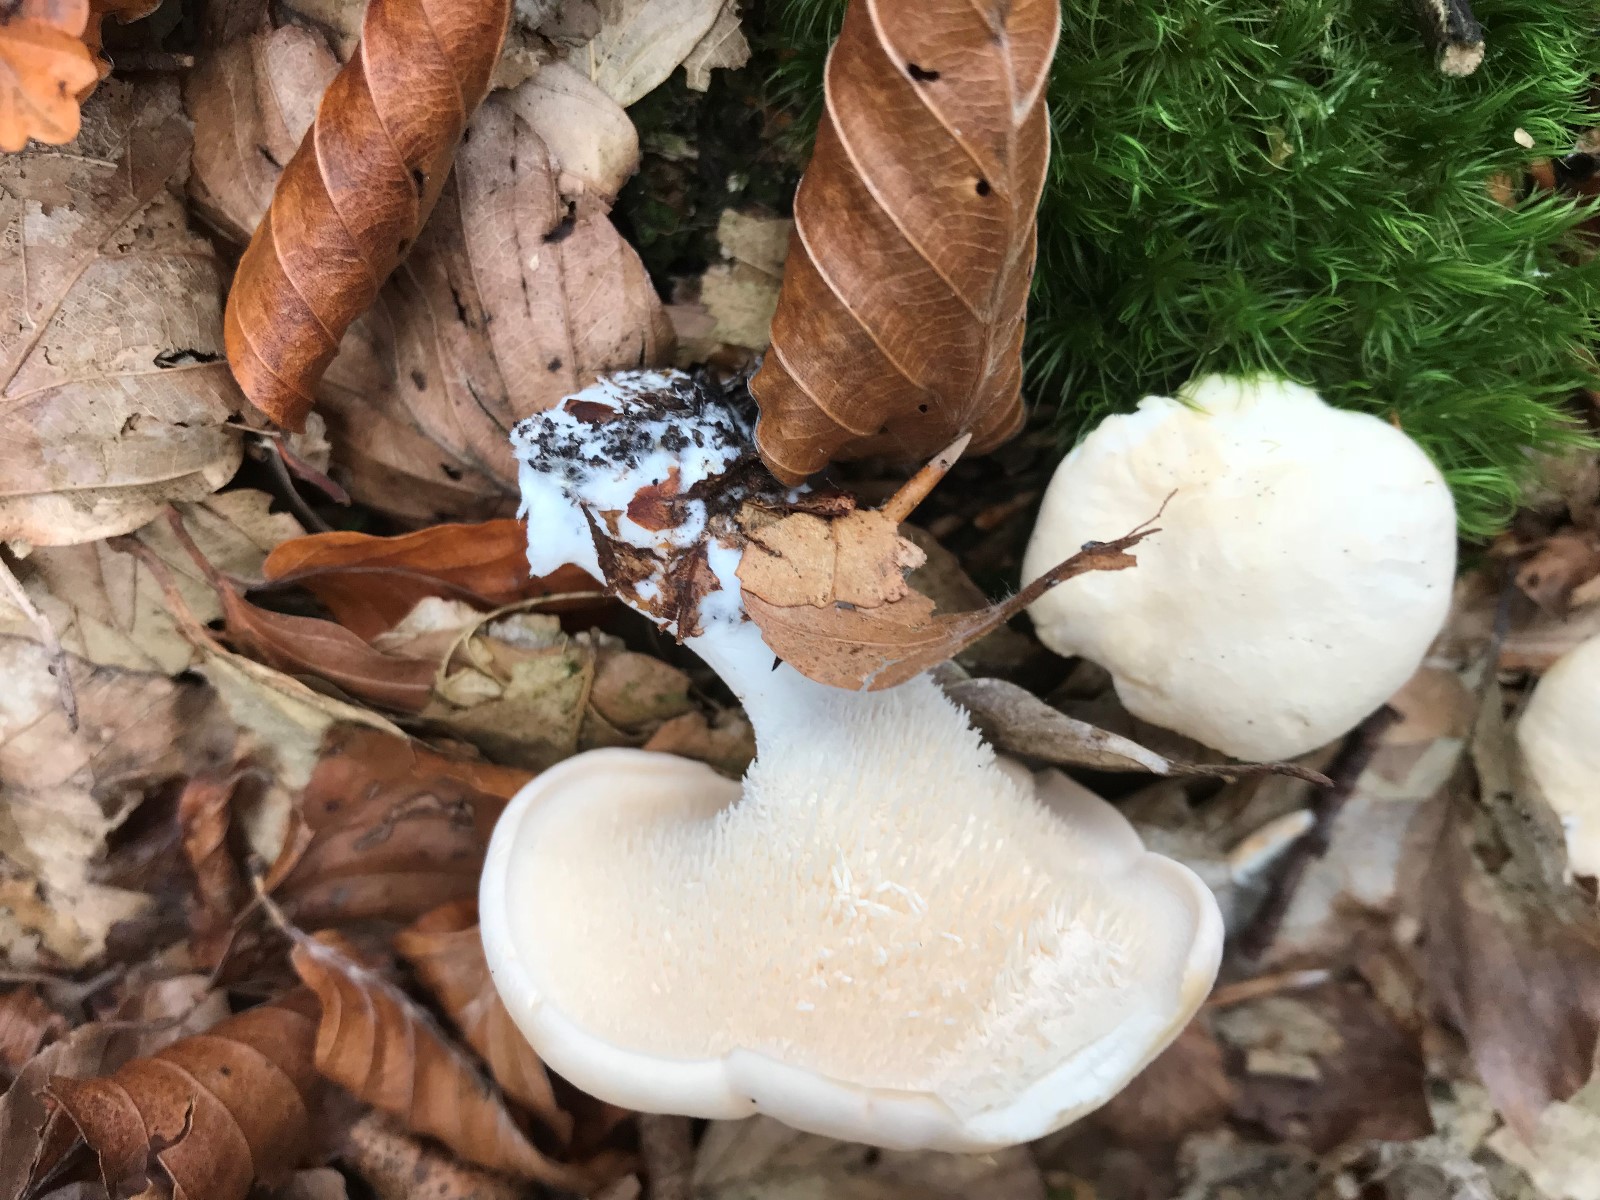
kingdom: Fungi
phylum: Basidiomycota
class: Agaricomycetes
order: Cantharellales
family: Hydnaceae
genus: Hydnum
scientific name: Hydnum repandum
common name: almindelig pigsvamp
